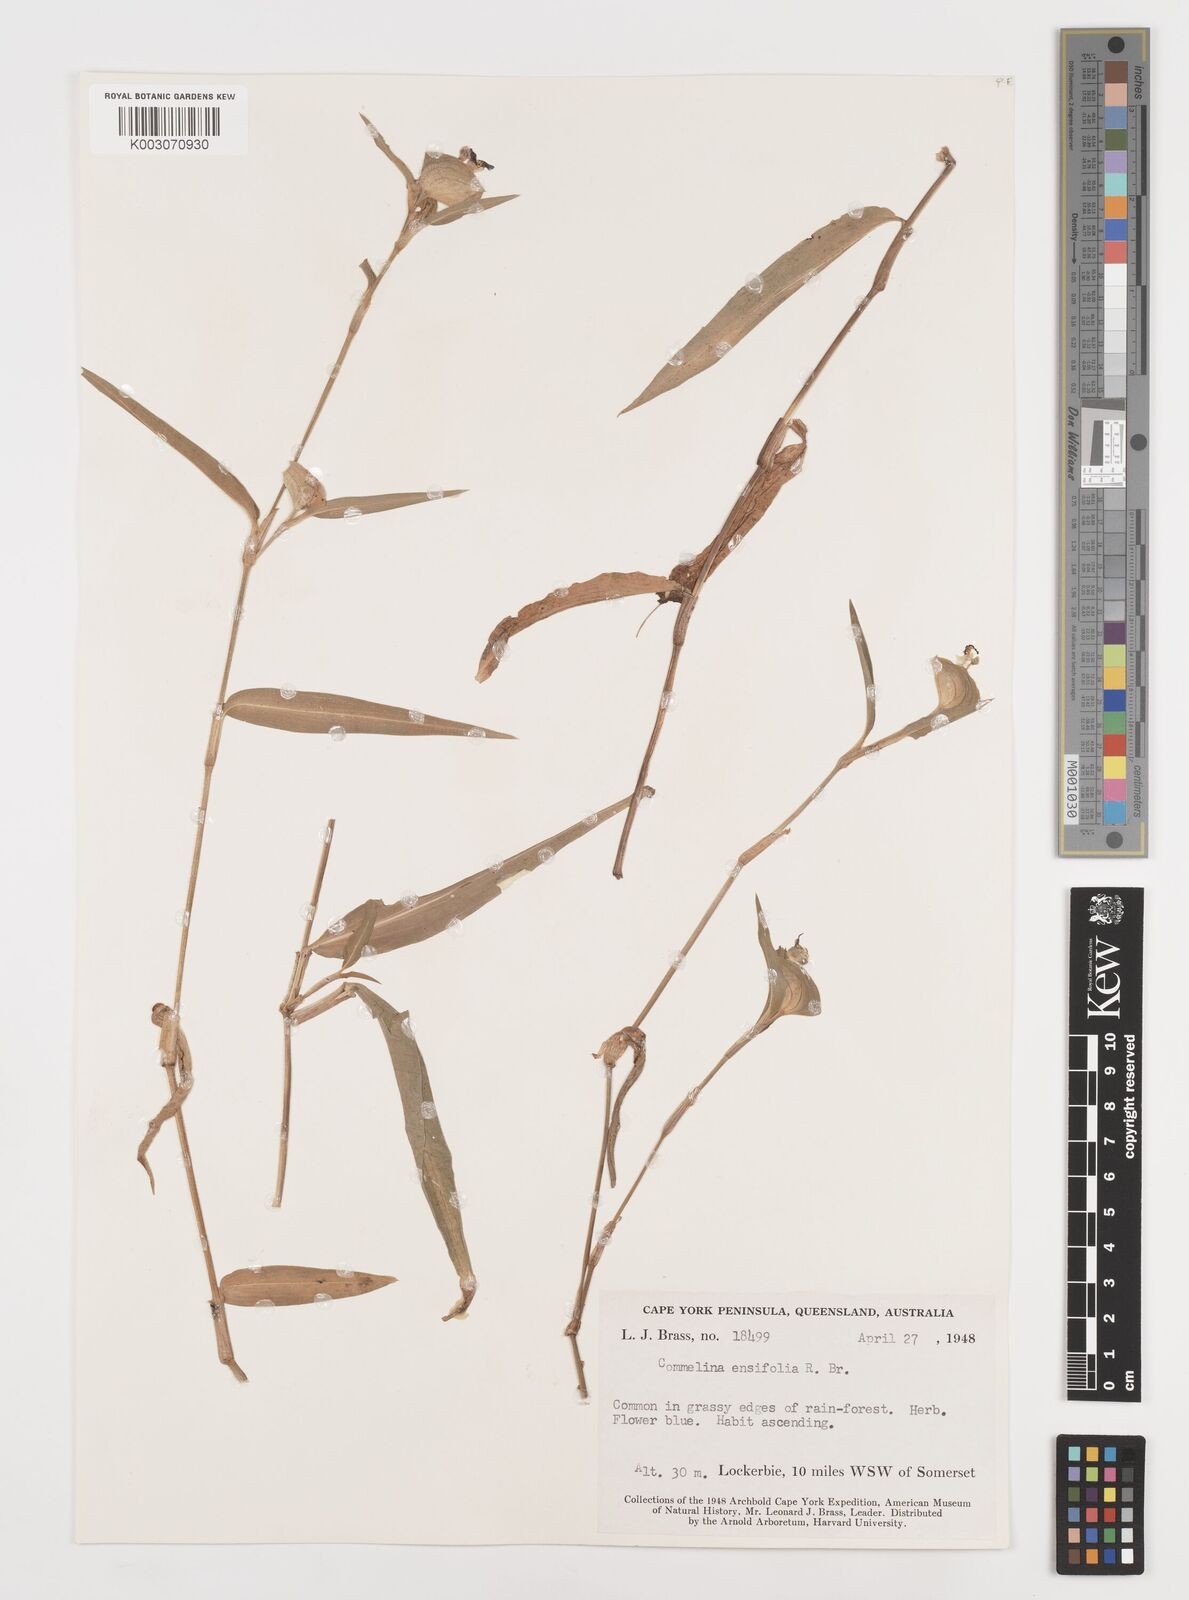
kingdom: Plantae
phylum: Tracheophyta
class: Liliopsida
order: Commelinales
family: Commelinaceae
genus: Commelina
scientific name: Commelina ensifolia
